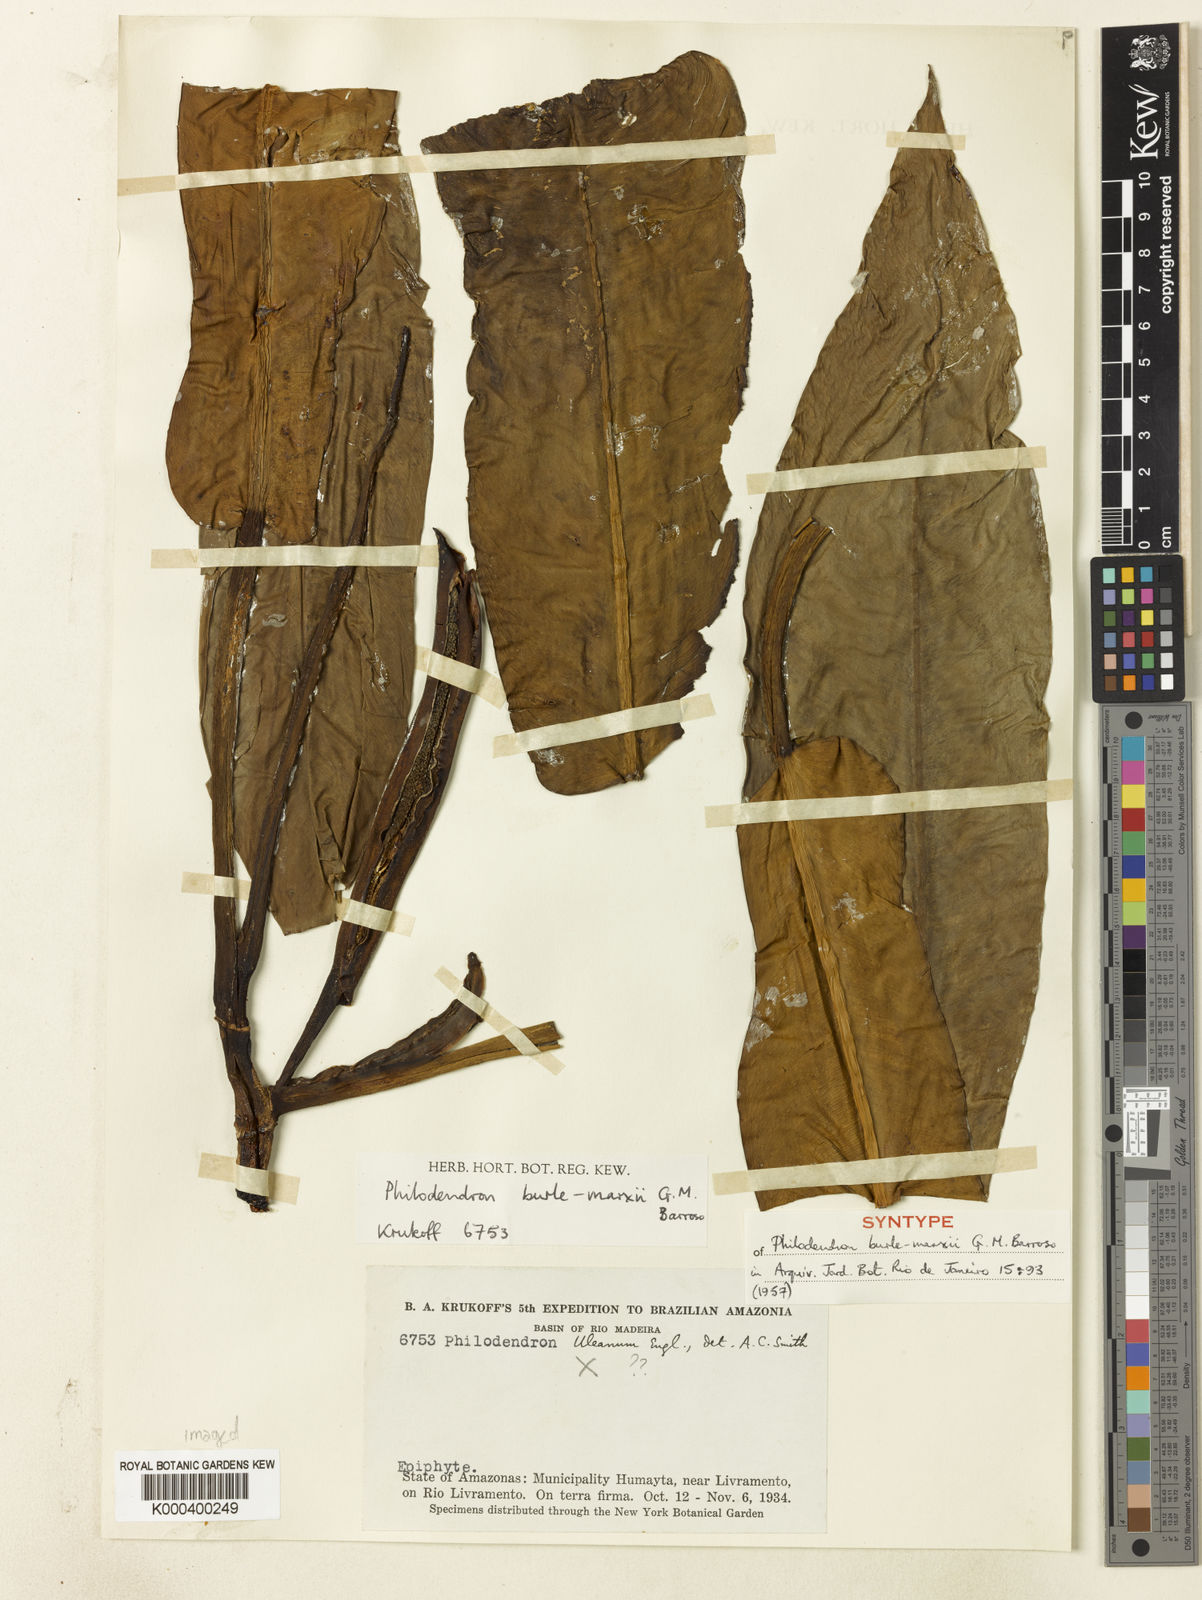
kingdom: Plantae
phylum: Tracheophyta
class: Liliopsida
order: Alismatales
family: Araceae
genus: Philodendron
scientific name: Philodendron burle-marxii
